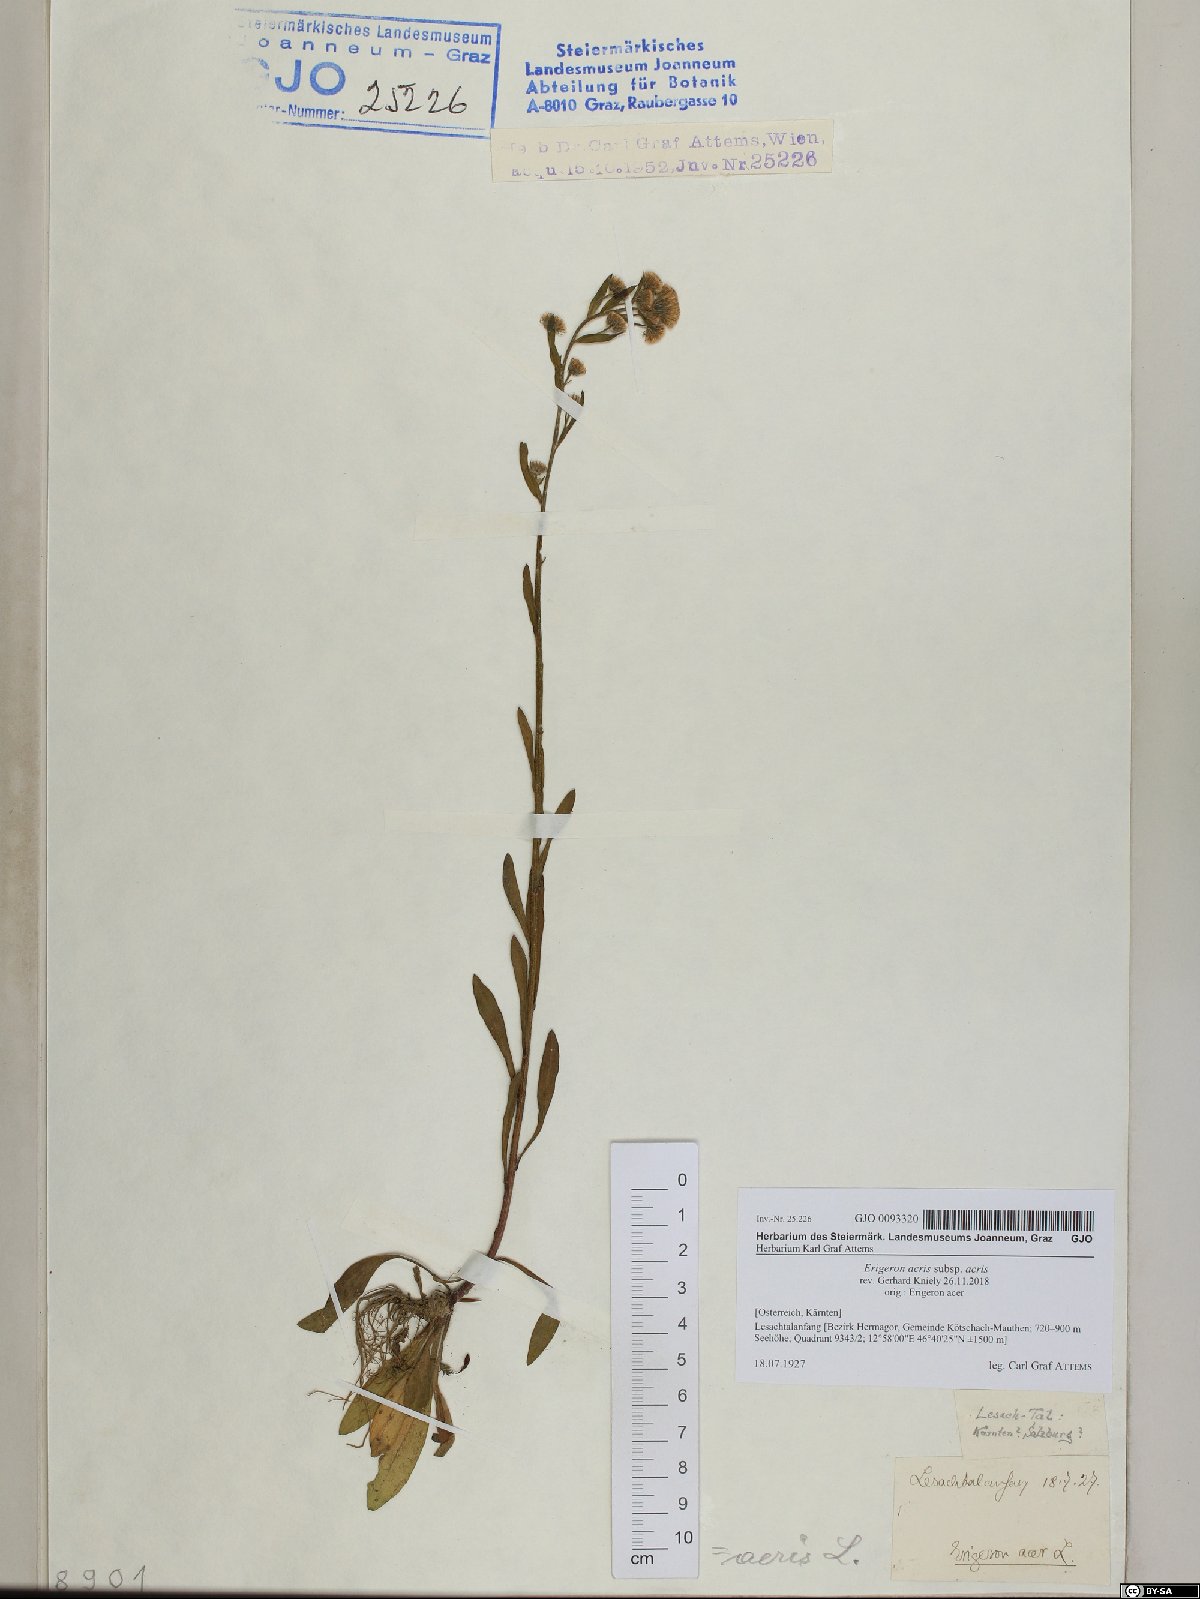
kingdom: Plantae
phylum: Tracheophyta
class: Magnoliopsida
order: Asterales
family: Asteraceae
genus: Erigeron
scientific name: Erigeron acris
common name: Blue fleabane
